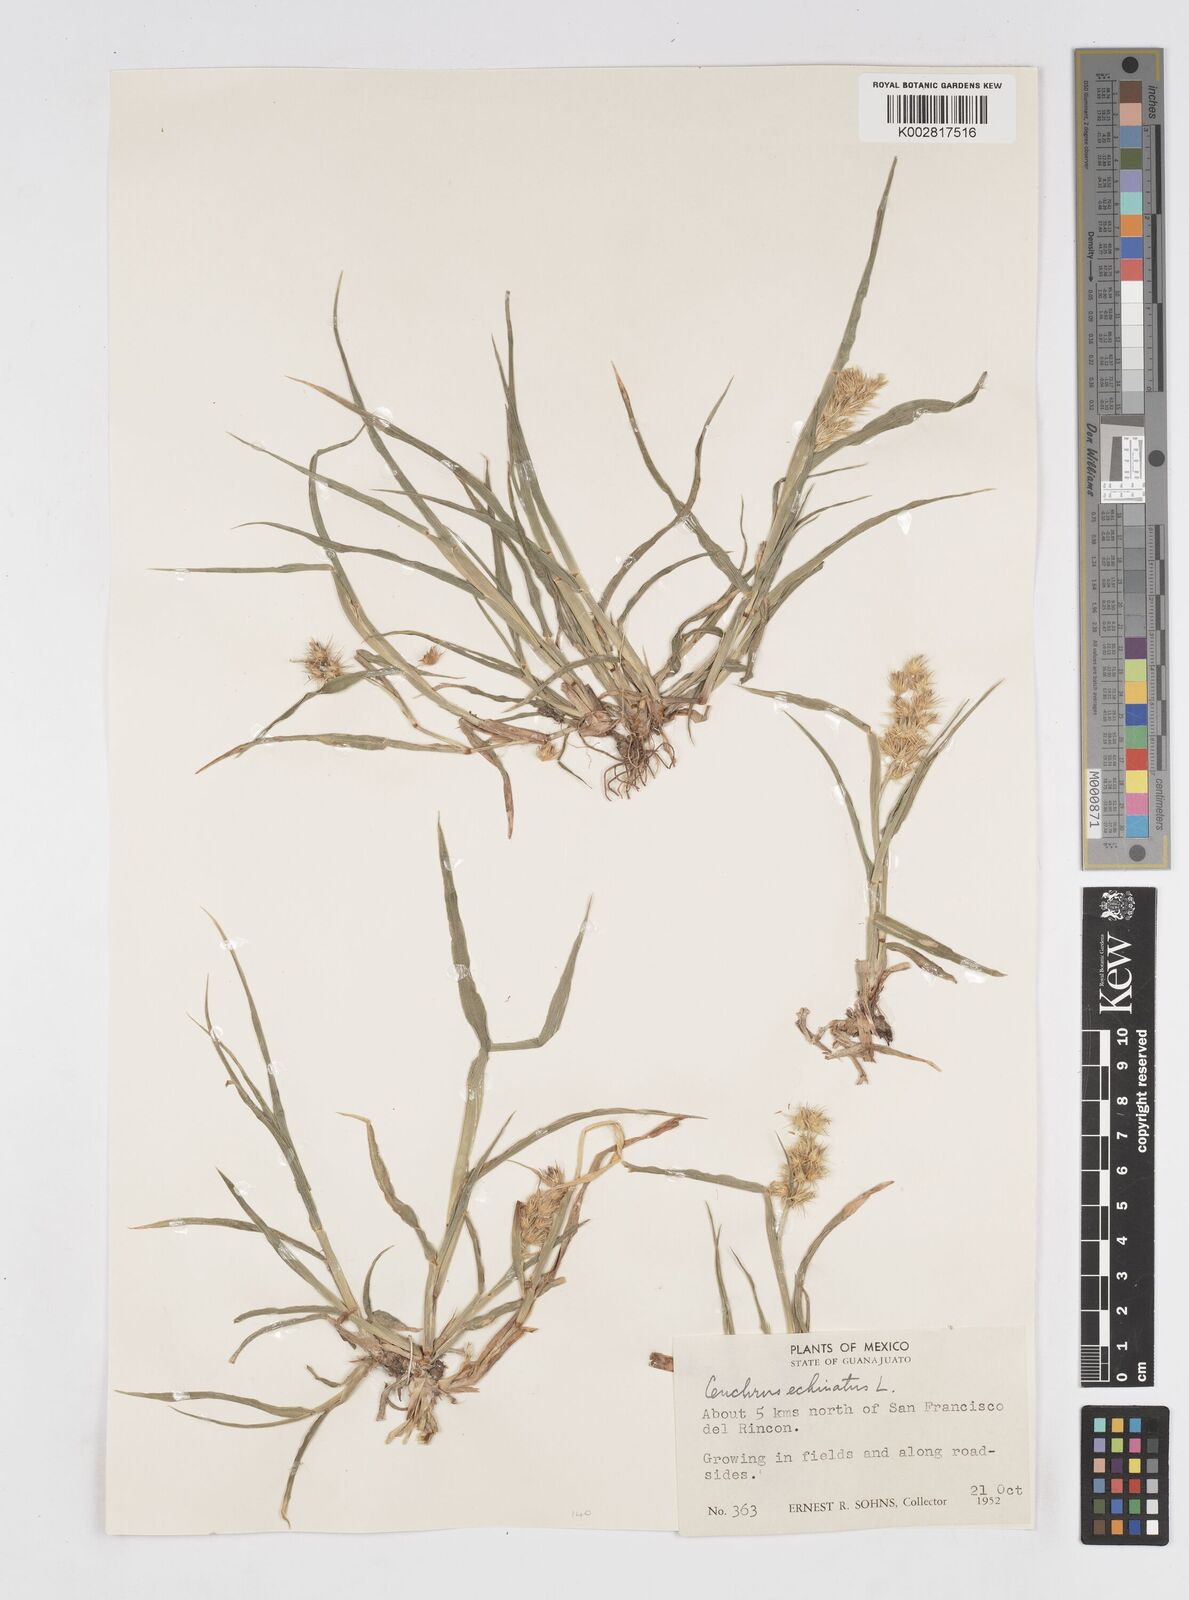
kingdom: Plantae
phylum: Tracheophyta
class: Liliopsida
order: Poales
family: Poaceae
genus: Cenchrus
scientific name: Cenchrus
